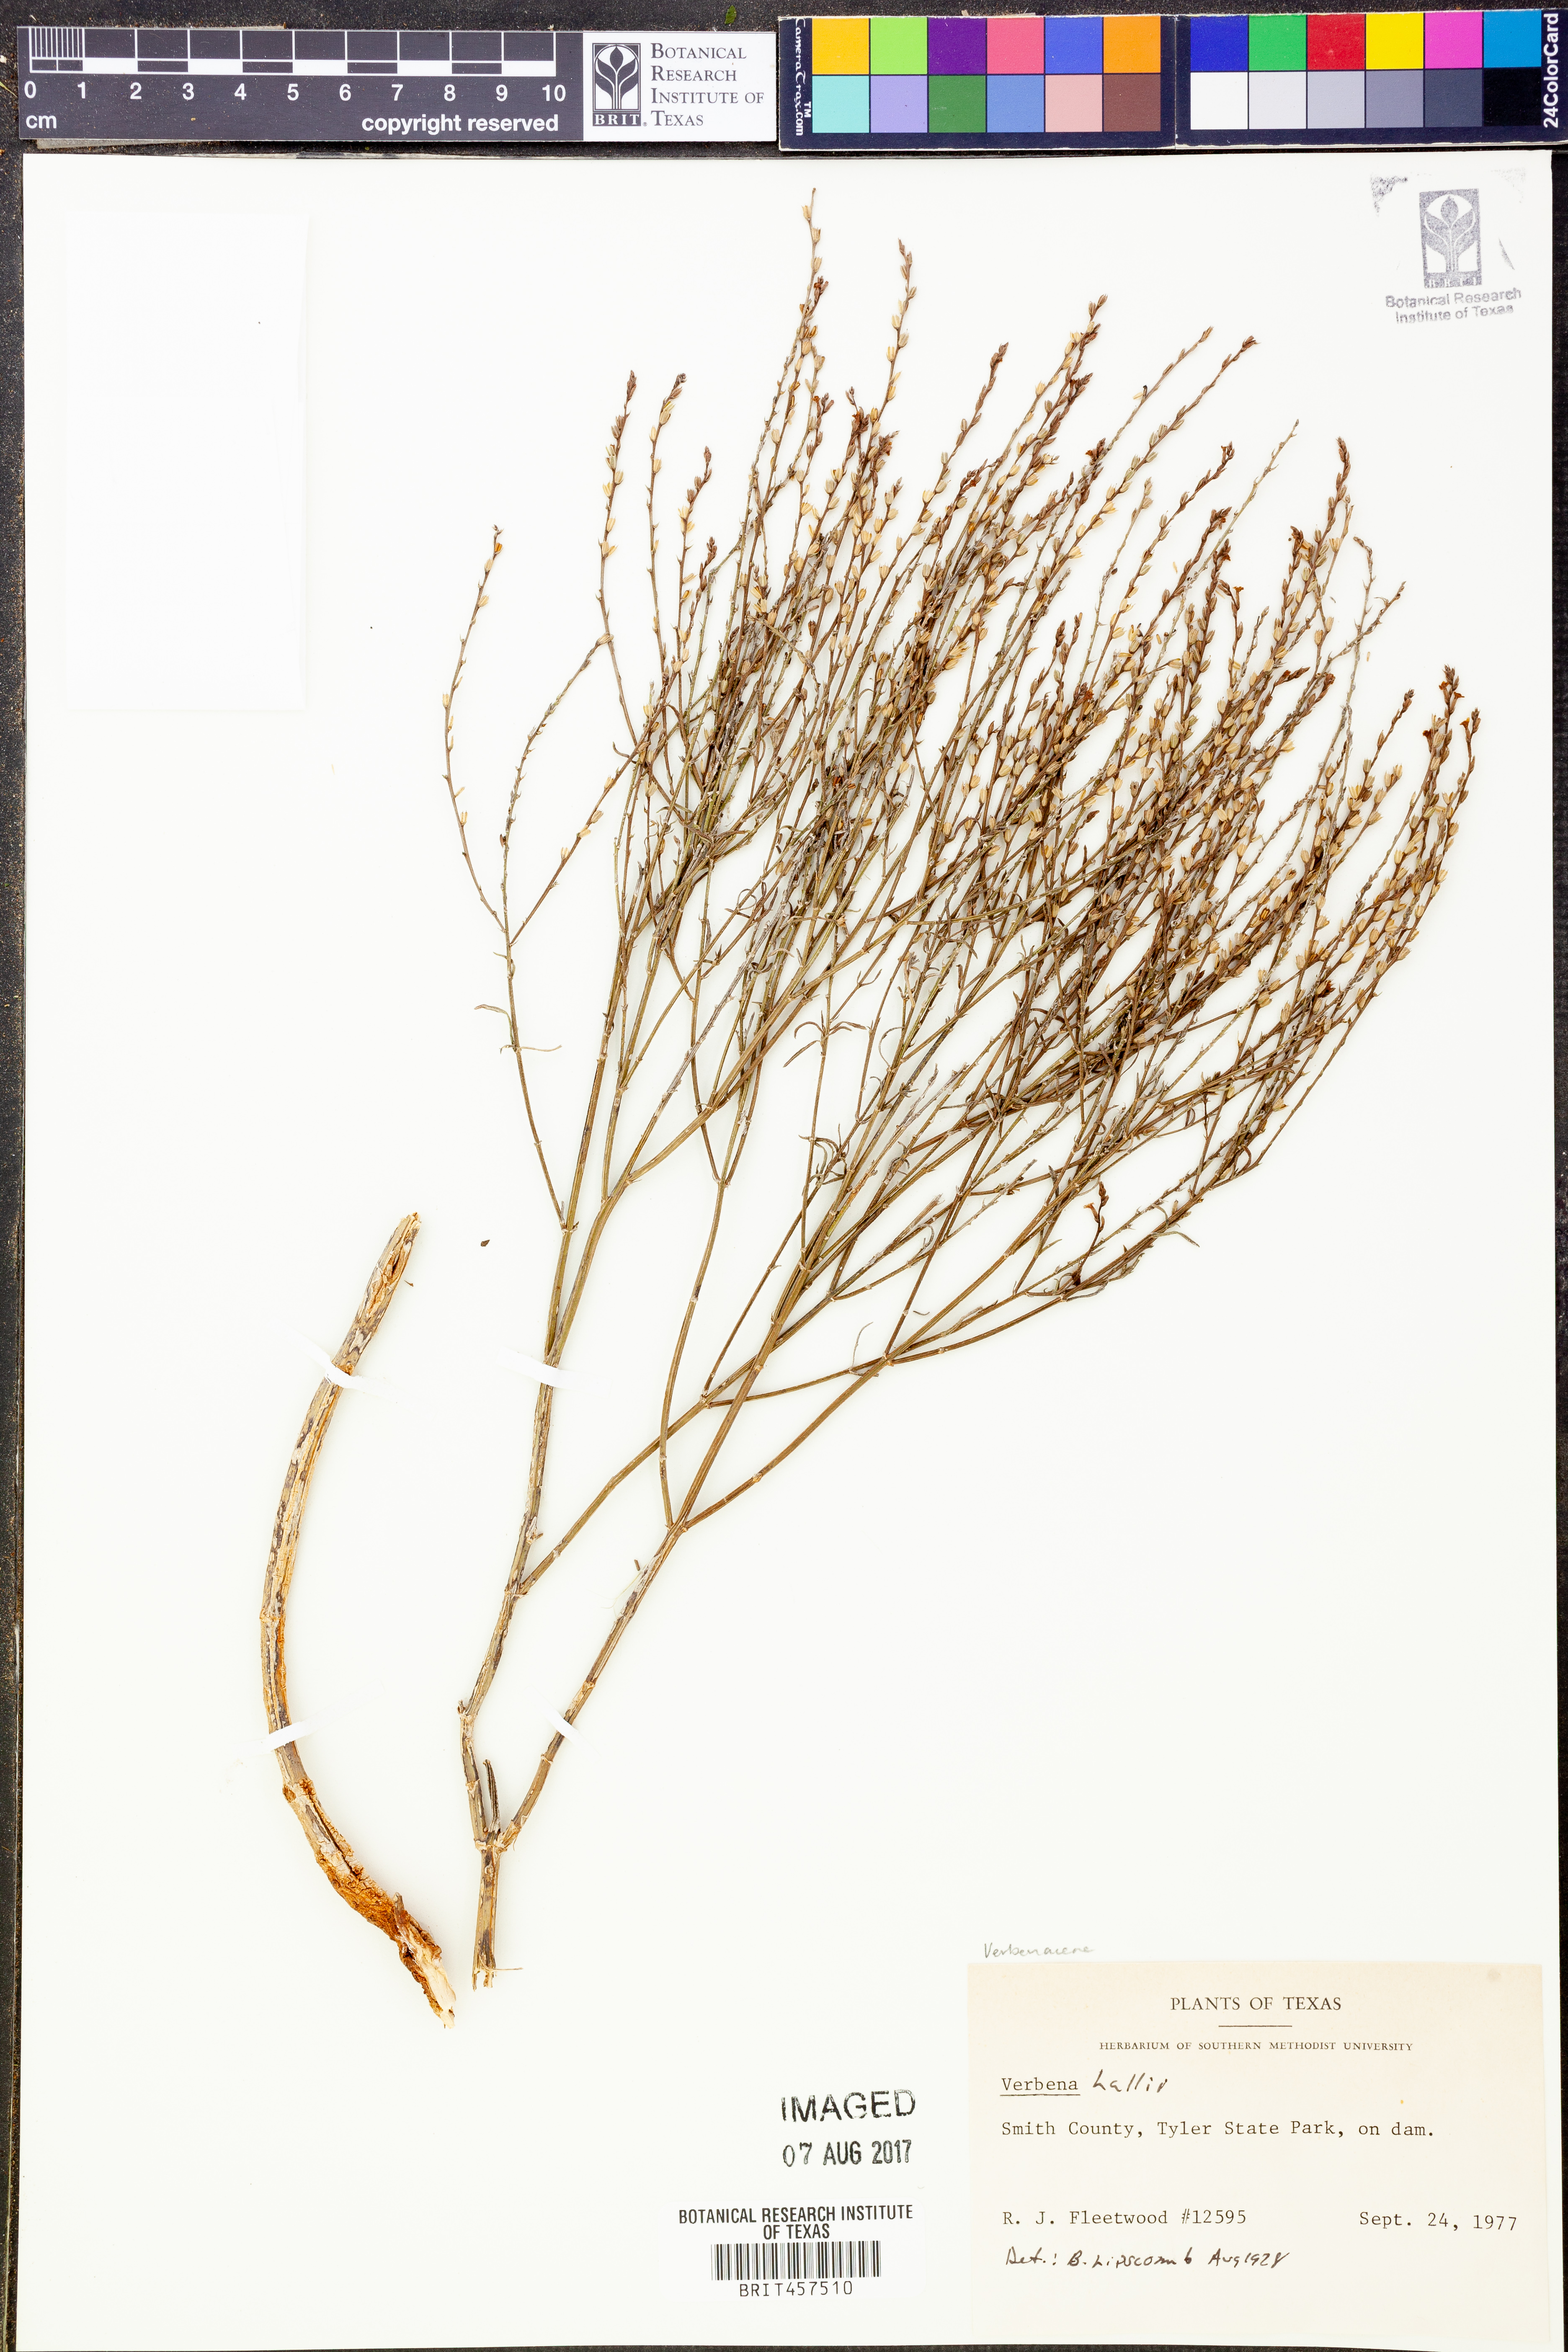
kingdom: Plantae
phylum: Tracheophyta
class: Magnoliopsida
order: Lamiales
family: Verbenaceae
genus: Verbena
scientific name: Verbena halei
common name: Texas vervain
